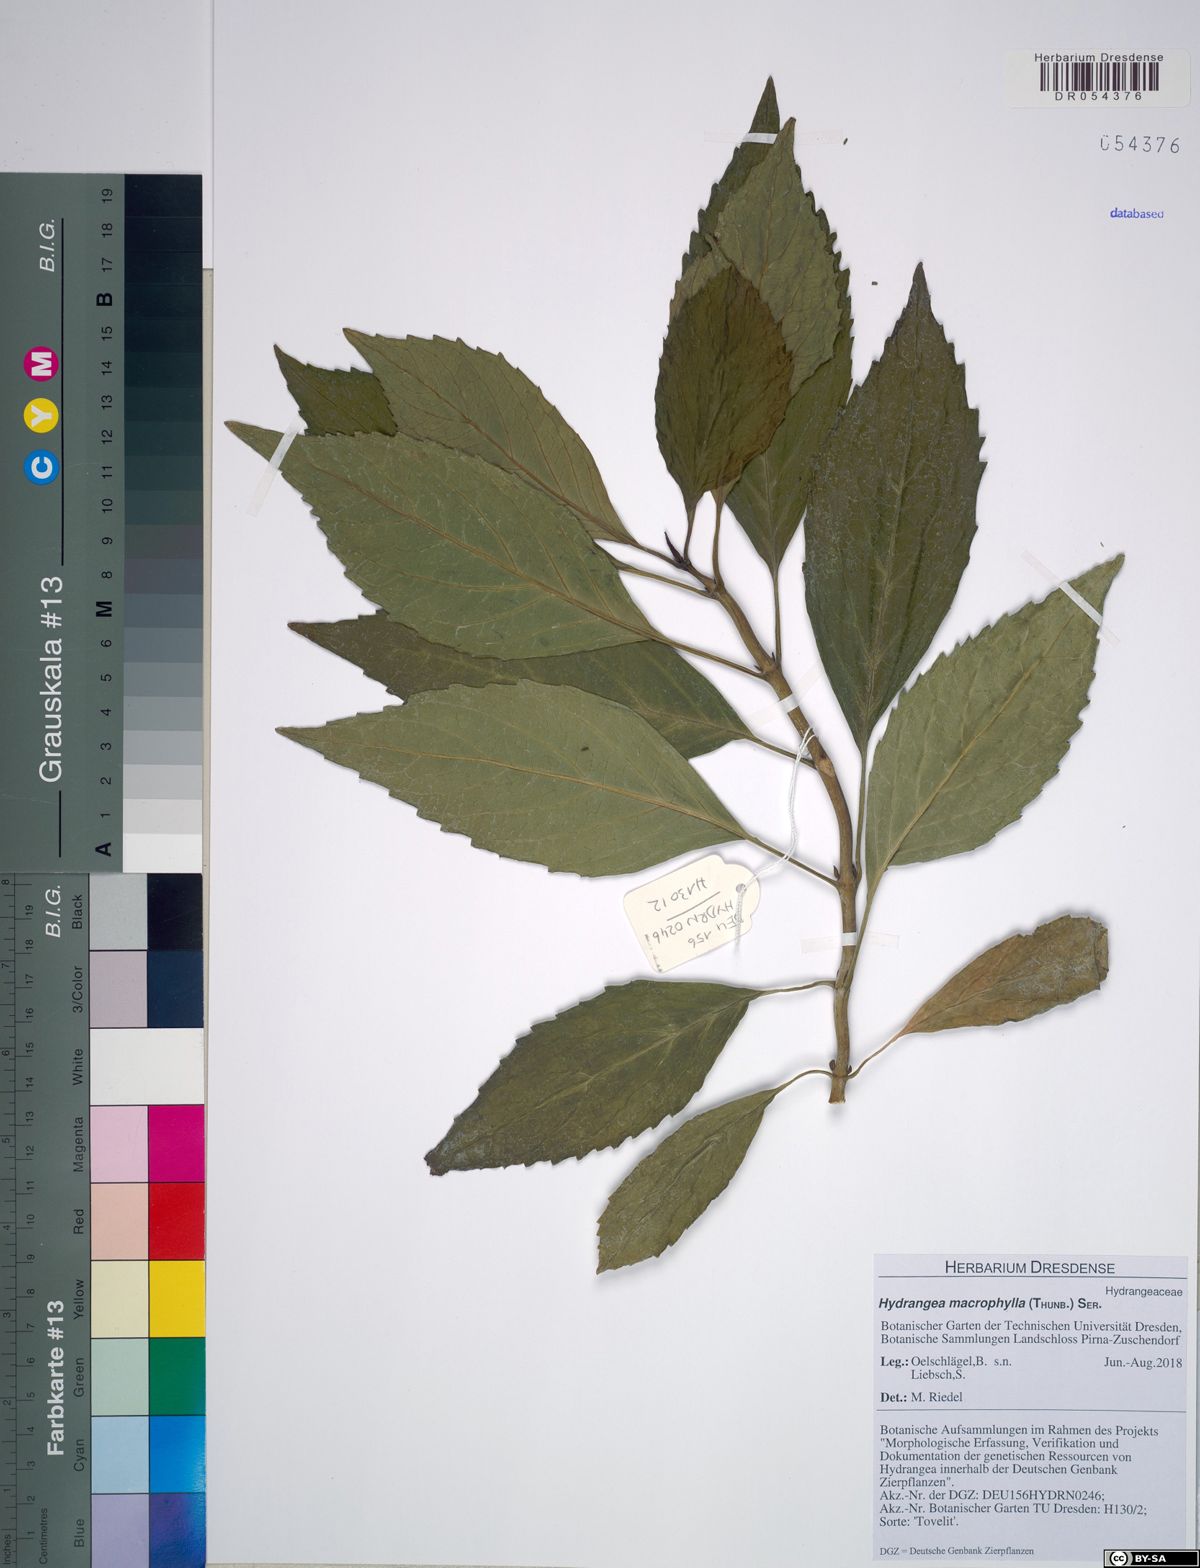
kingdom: Plantae
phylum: Tracheophyta
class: Magnoliopsida
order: Cornales
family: Hydrangeaceae
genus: Hydrangea
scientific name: Hydrangea macrophylla
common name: Hydrangea
